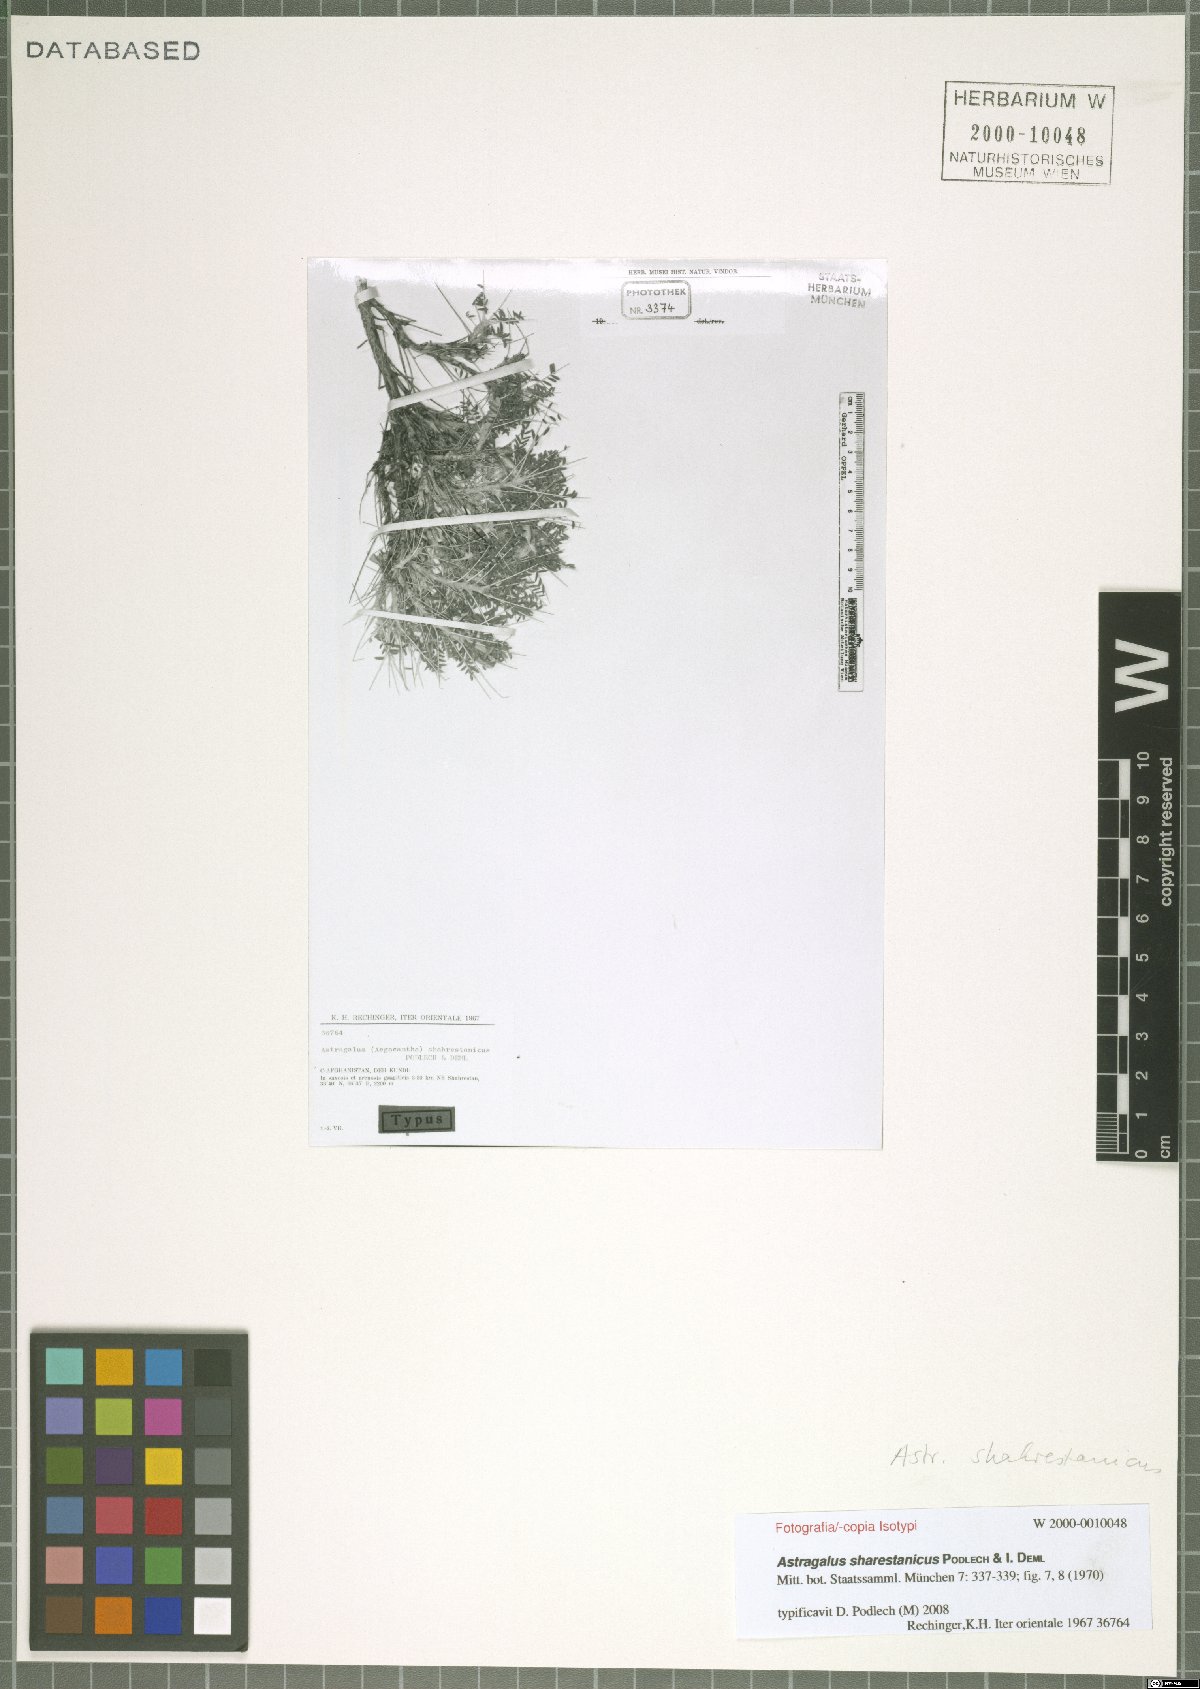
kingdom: Plantae
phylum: Tracheophyta
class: Magnoliopsida
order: Fabales
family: Fabaceae
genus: Astragalus
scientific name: Astragalus sharestanicus
